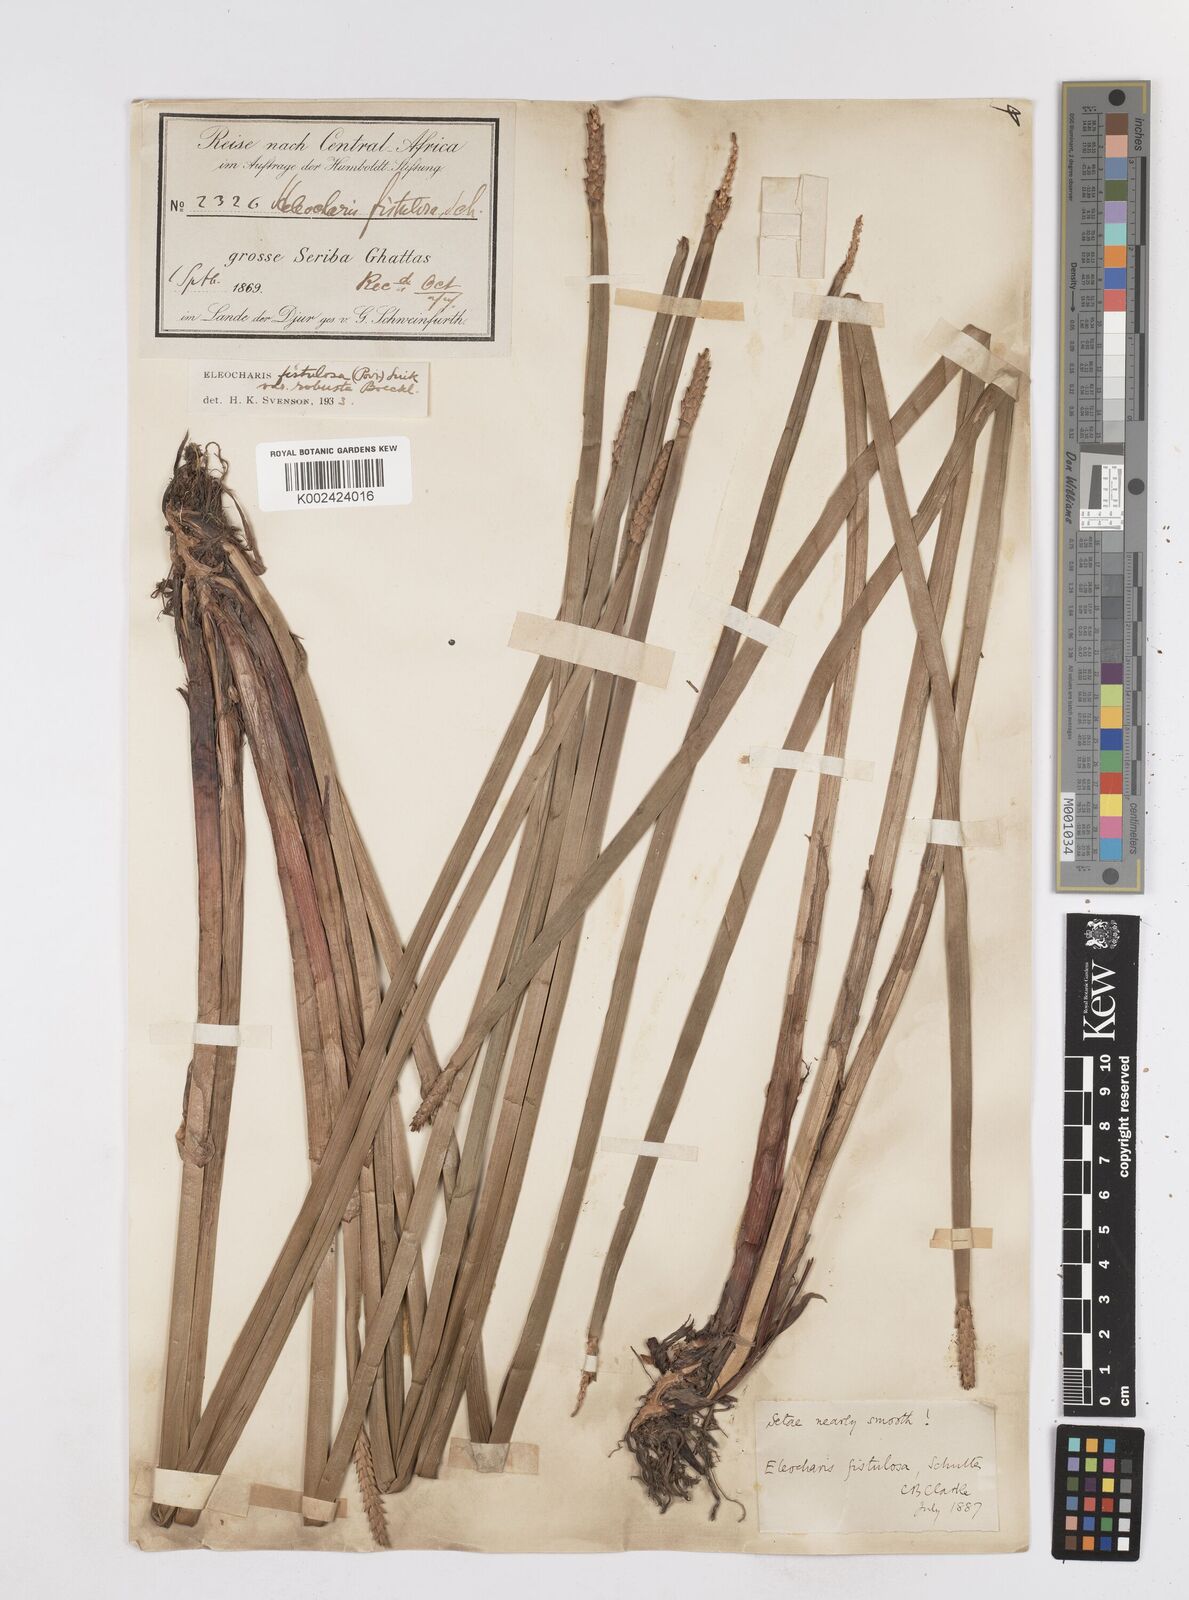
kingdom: Plantae
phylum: Tracheophyta
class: Liliopsida
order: Poales
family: Cyperaceae
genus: Eleocharis
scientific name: Eleocharis acutangula
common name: Acute spikerush
